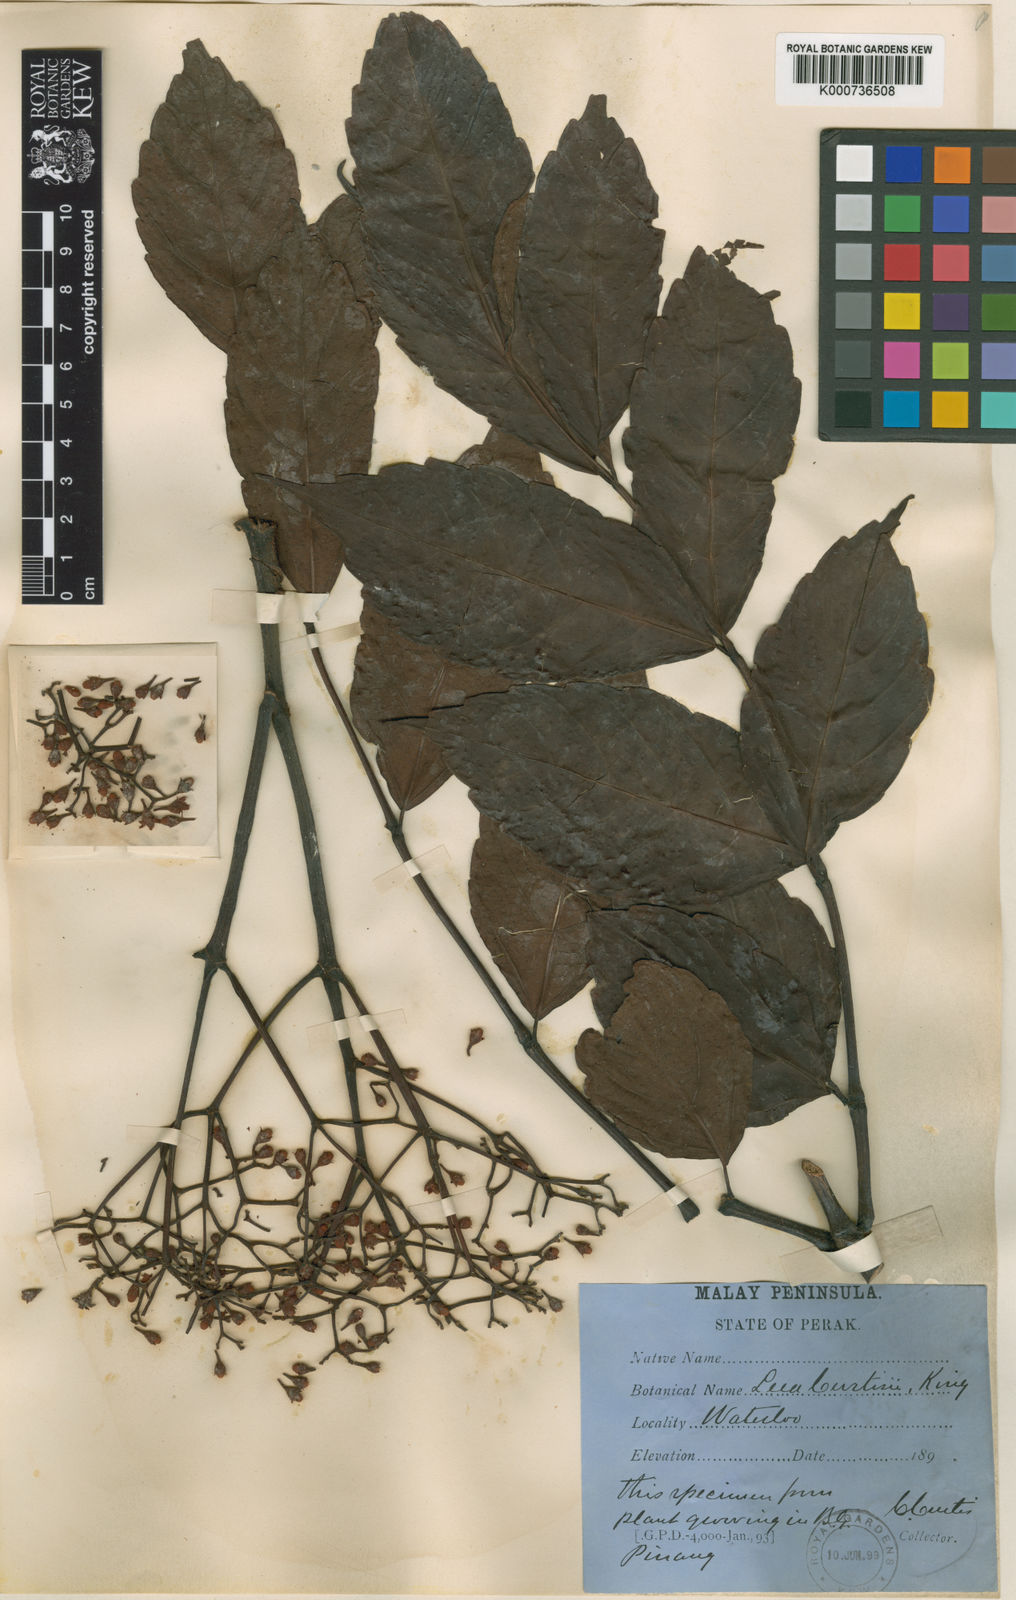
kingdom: Plantae
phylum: Tracheophyta
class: Magnoliopsida
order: Vitales
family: Vitaceae
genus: Leea
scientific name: Leea curtisii
